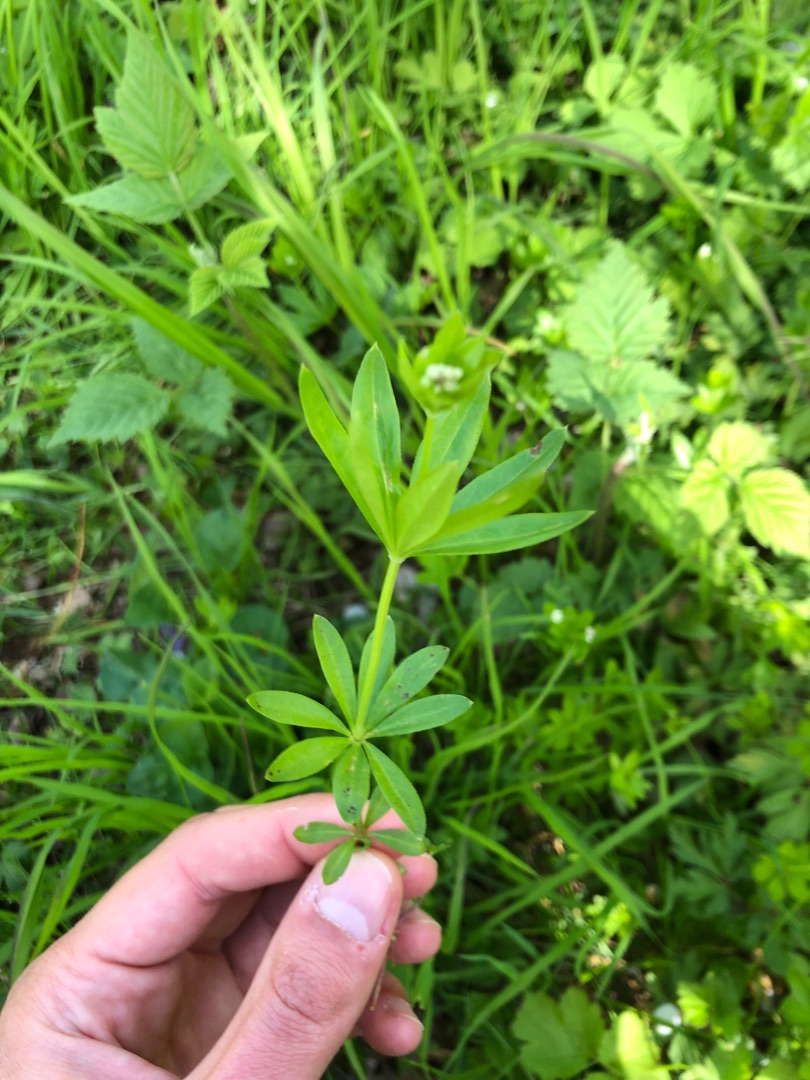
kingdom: Plantae
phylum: Tracheophyta
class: Magnoliopsida
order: Gentianales
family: Rubiaceae
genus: Galium
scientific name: Galium odoratum
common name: Skovmærke
